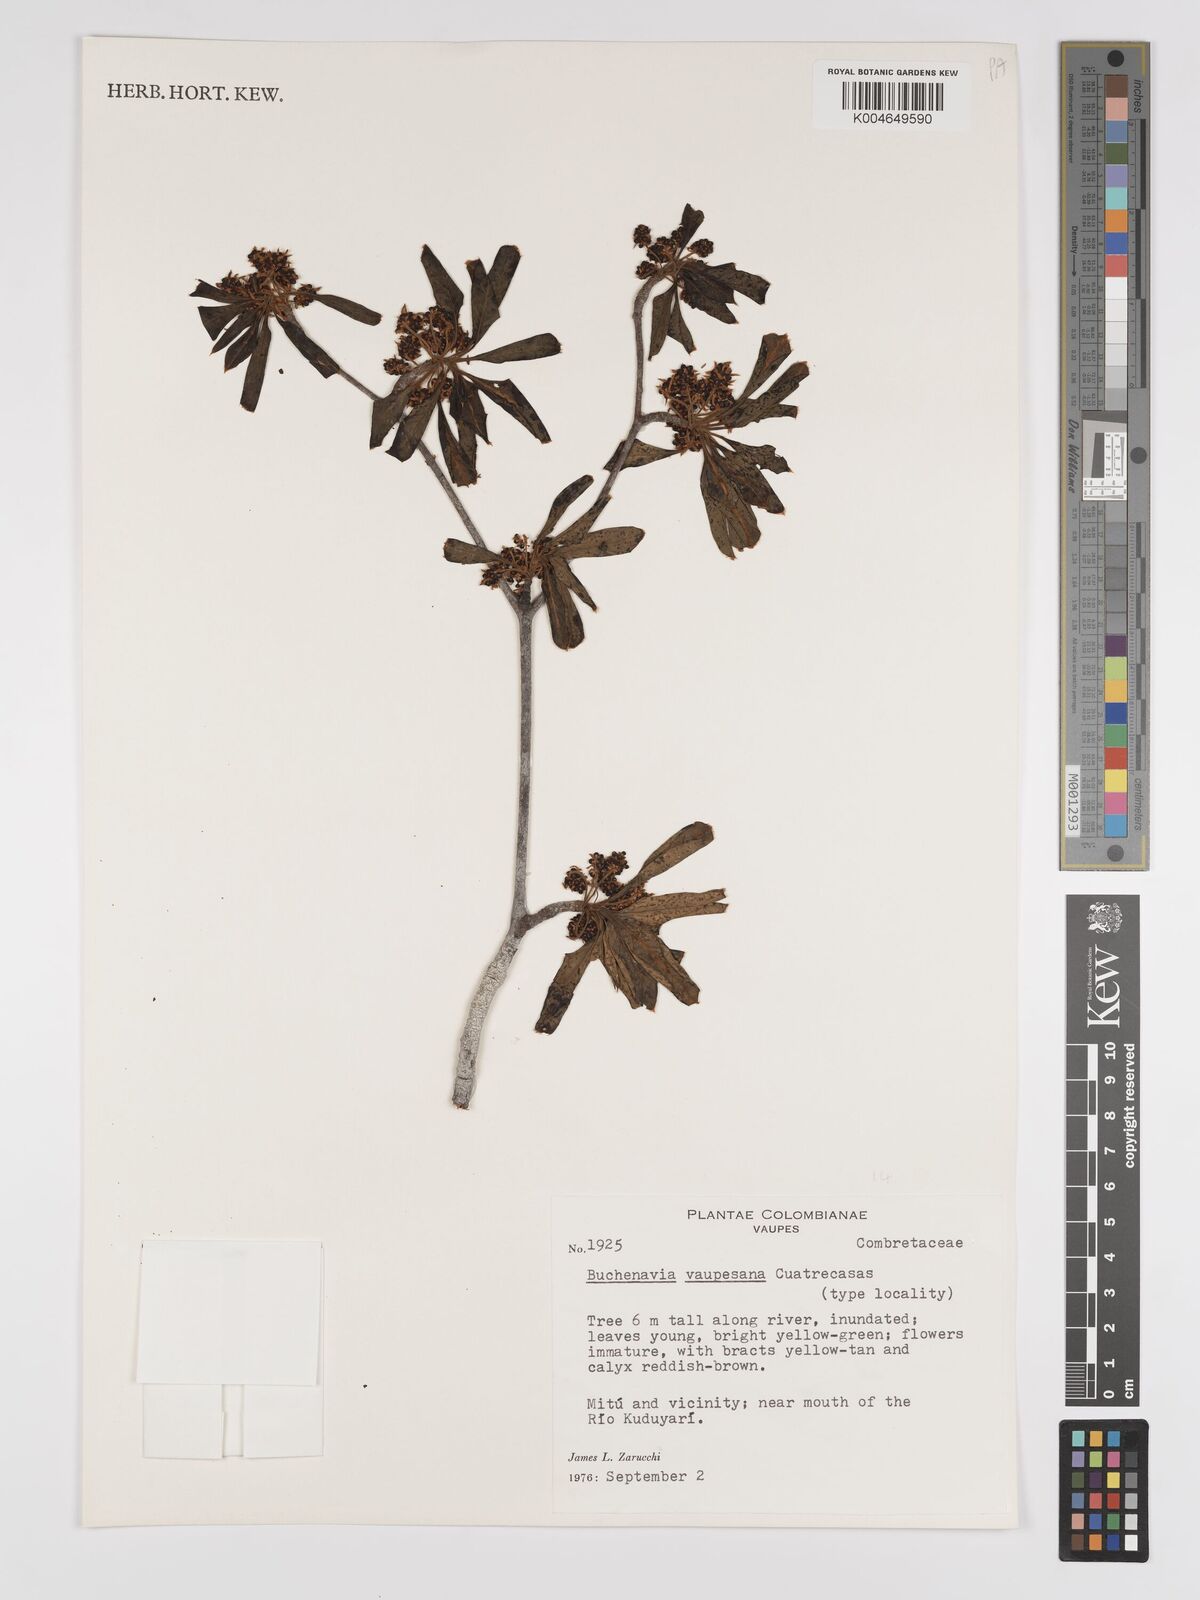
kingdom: Plantae
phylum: Tracheophyta
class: Magnoliopsida
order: Myrtales
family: Combretaceae
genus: Terminalia
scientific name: Terminalia tetraphylla
